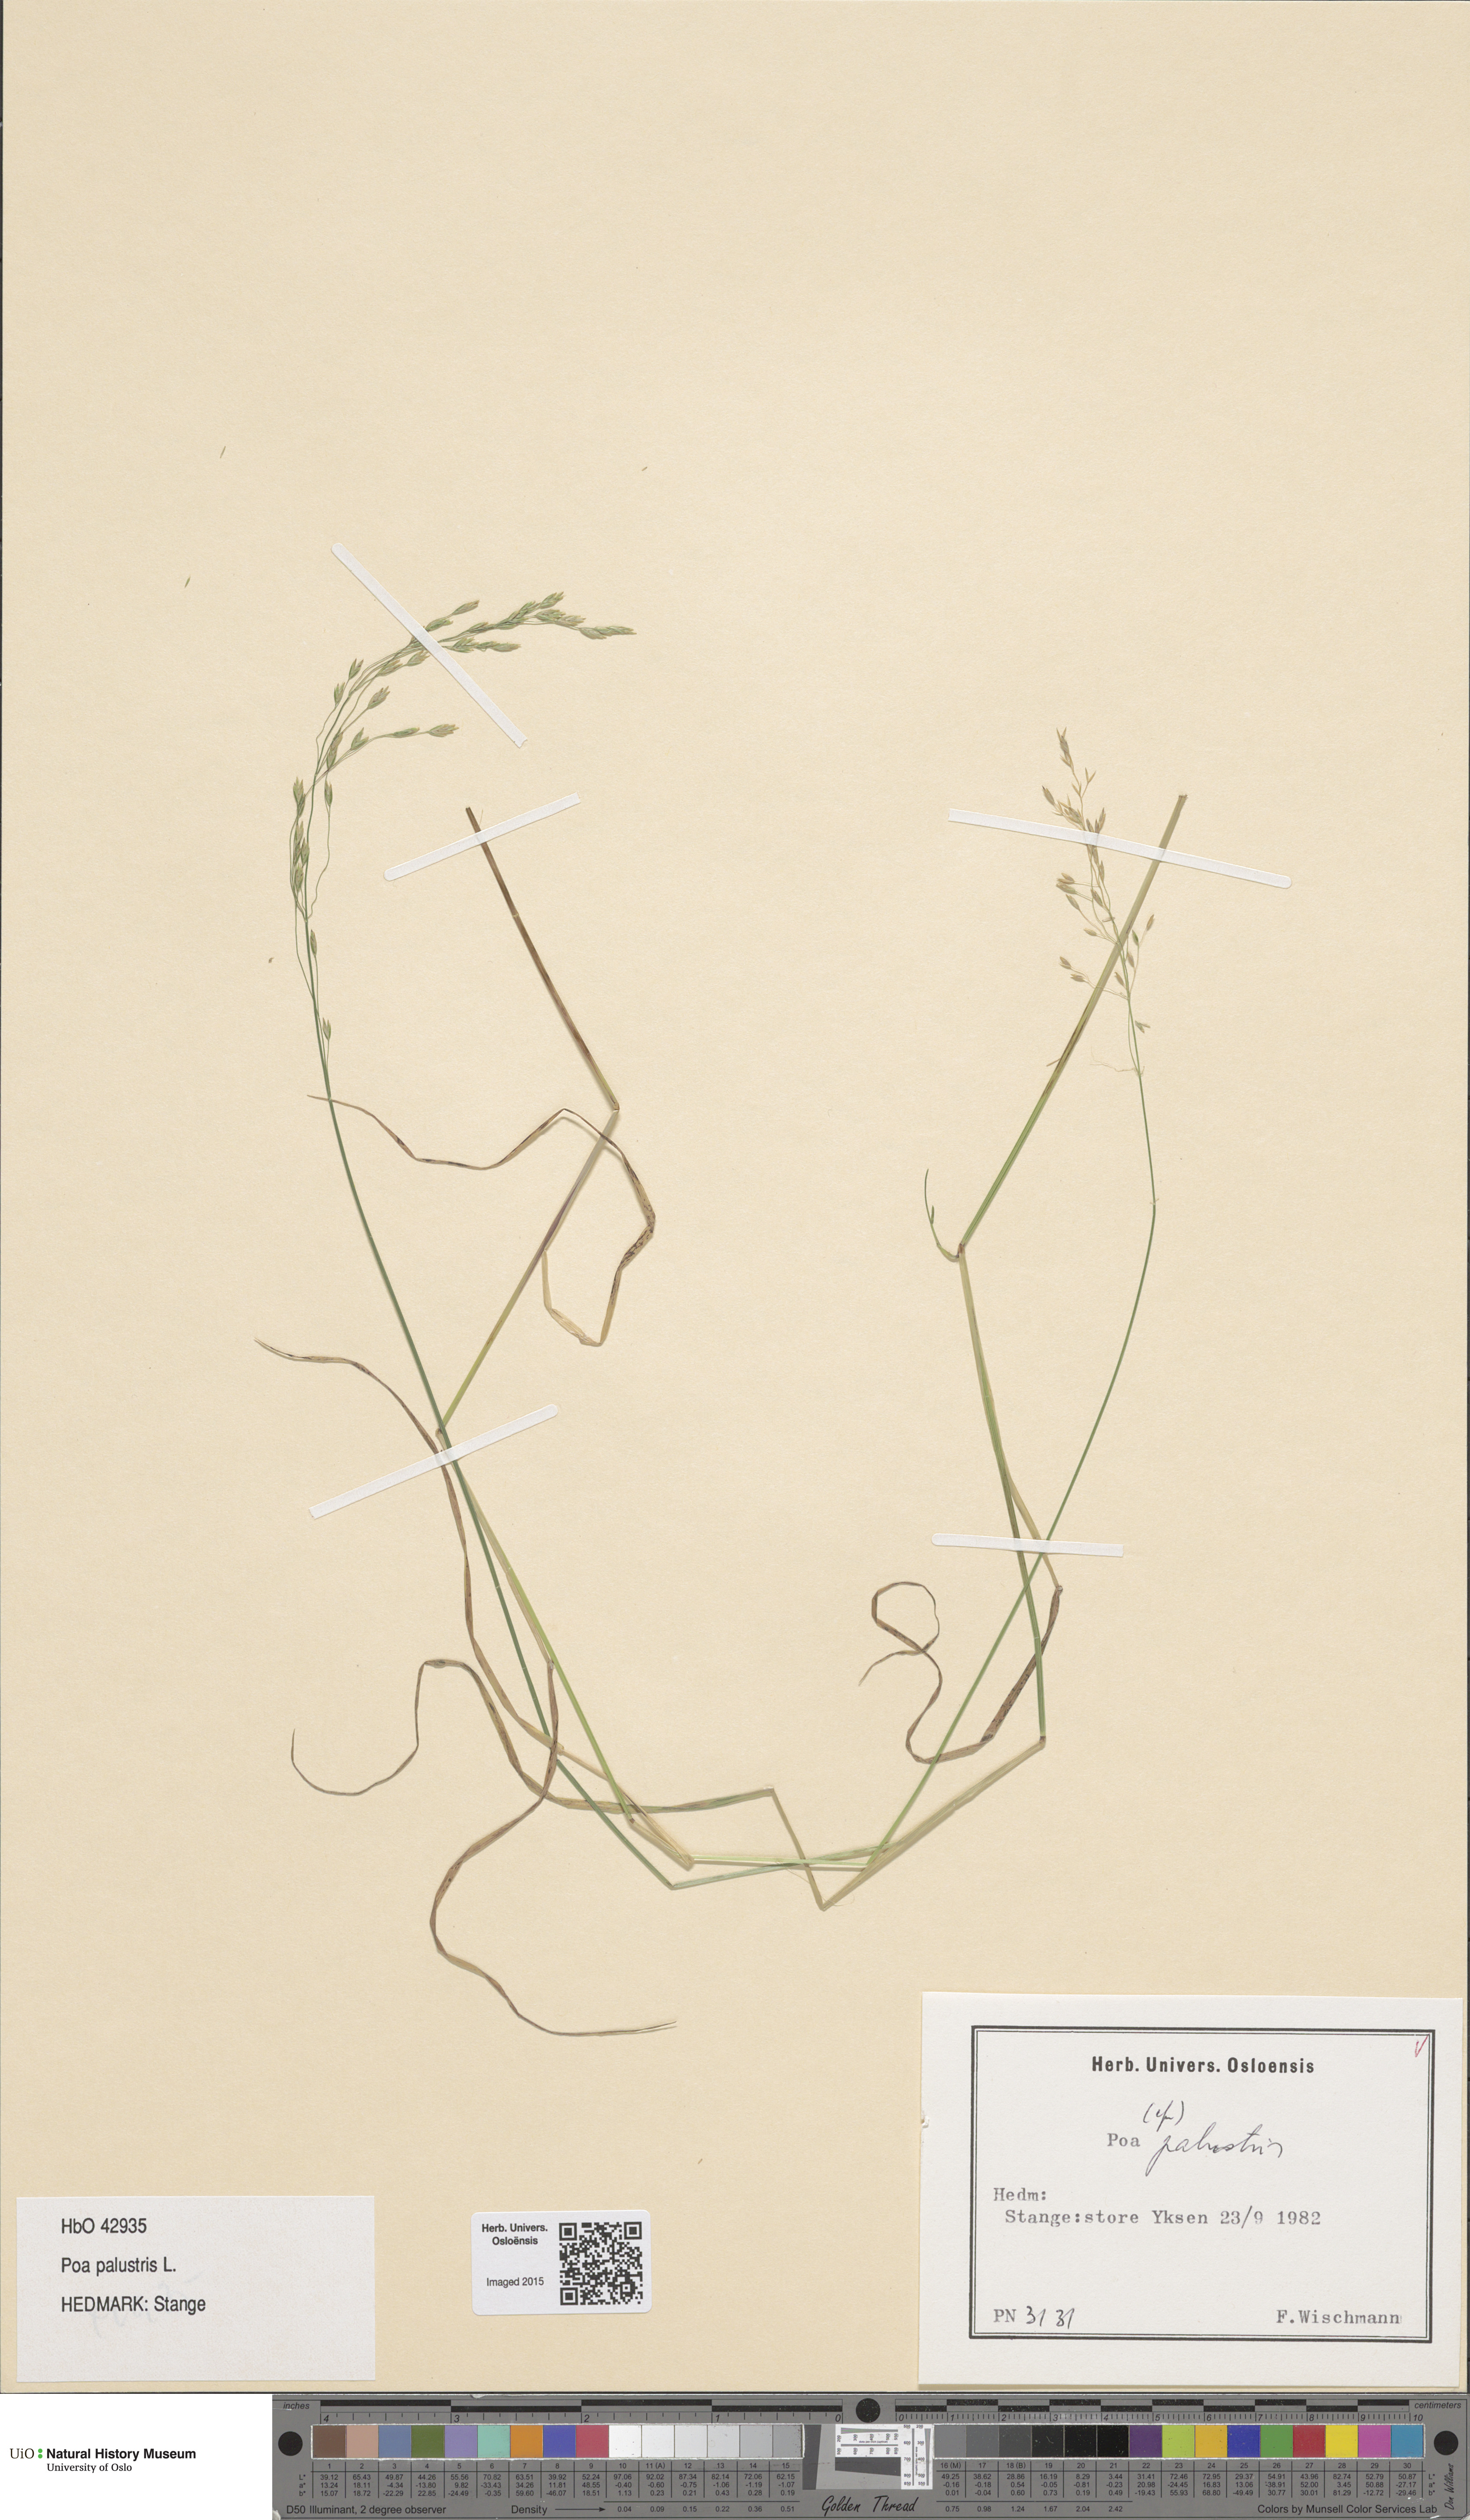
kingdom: Plantae
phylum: Tracheophyta
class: Liliopsida
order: Poales
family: Poaceae
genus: Poa
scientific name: Poa palustris
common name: Swamp meadow-grass
